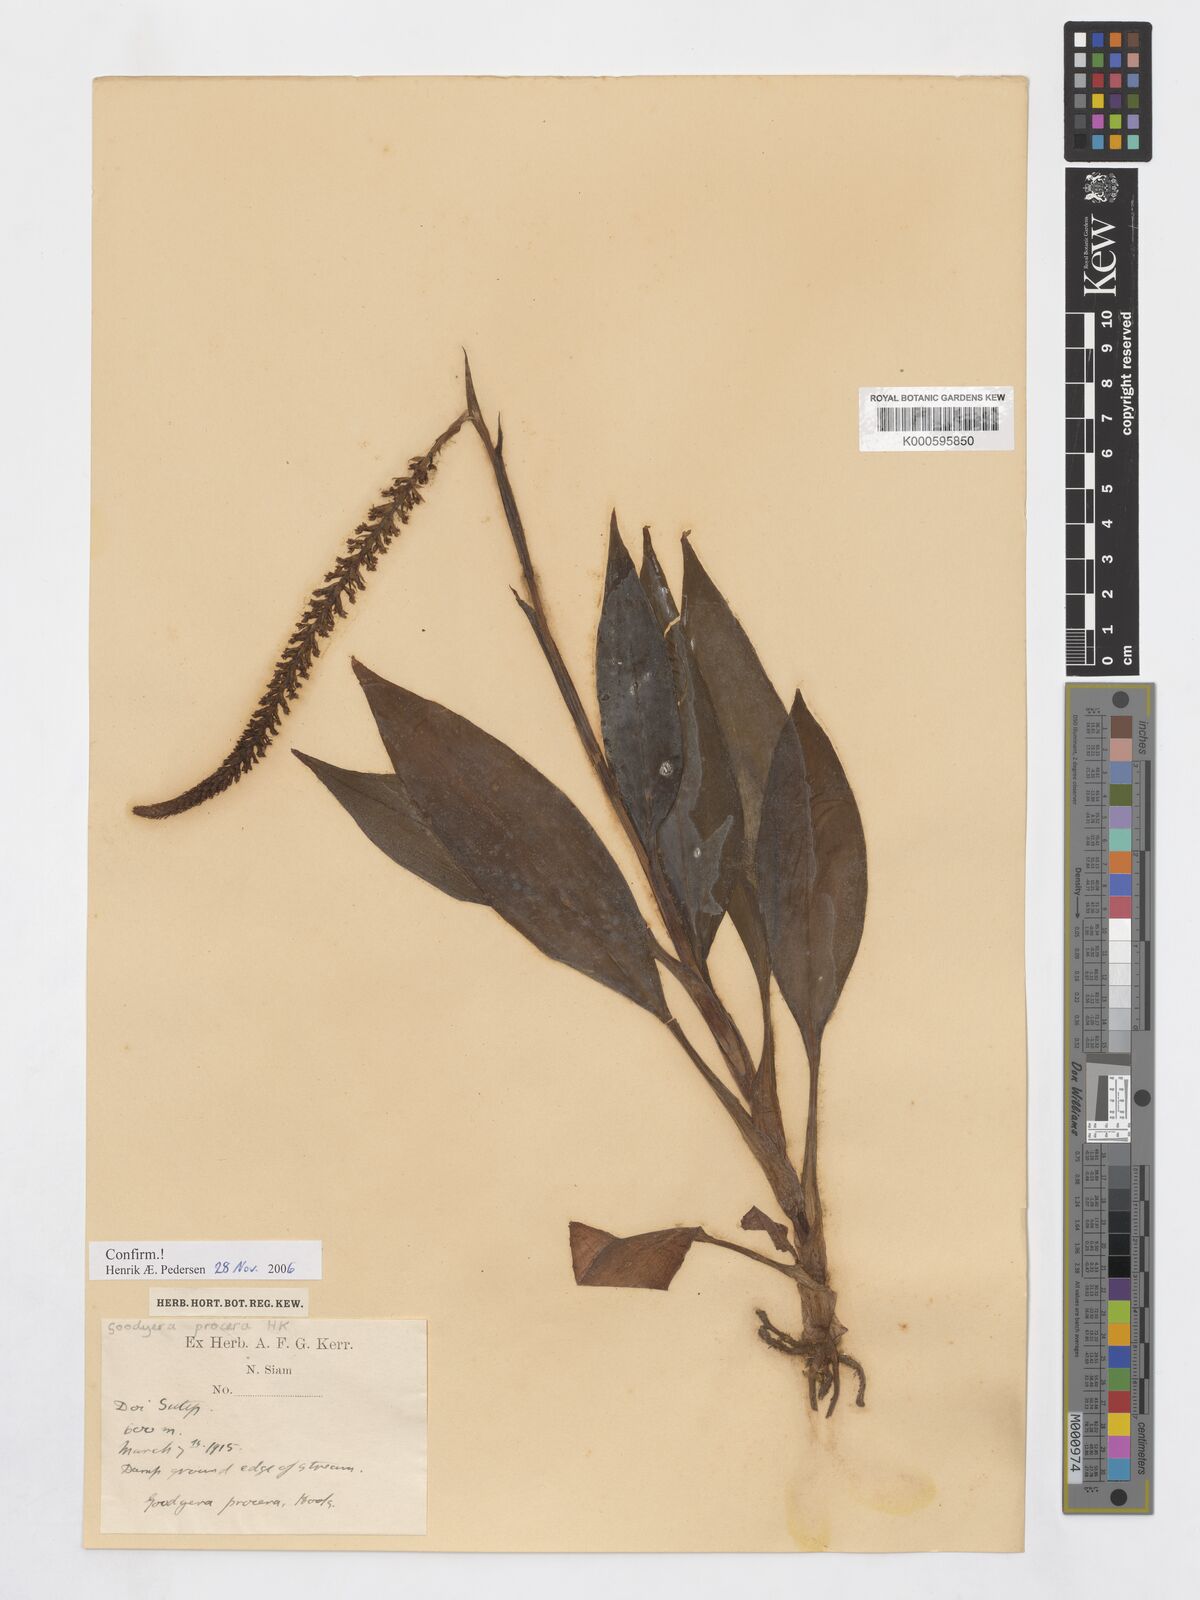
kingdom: Plantae
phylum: Tracheophyta
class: Liliopsida
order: Asparagales
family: Orchidaceae
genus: Goodyera
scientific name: Goodyera procera
